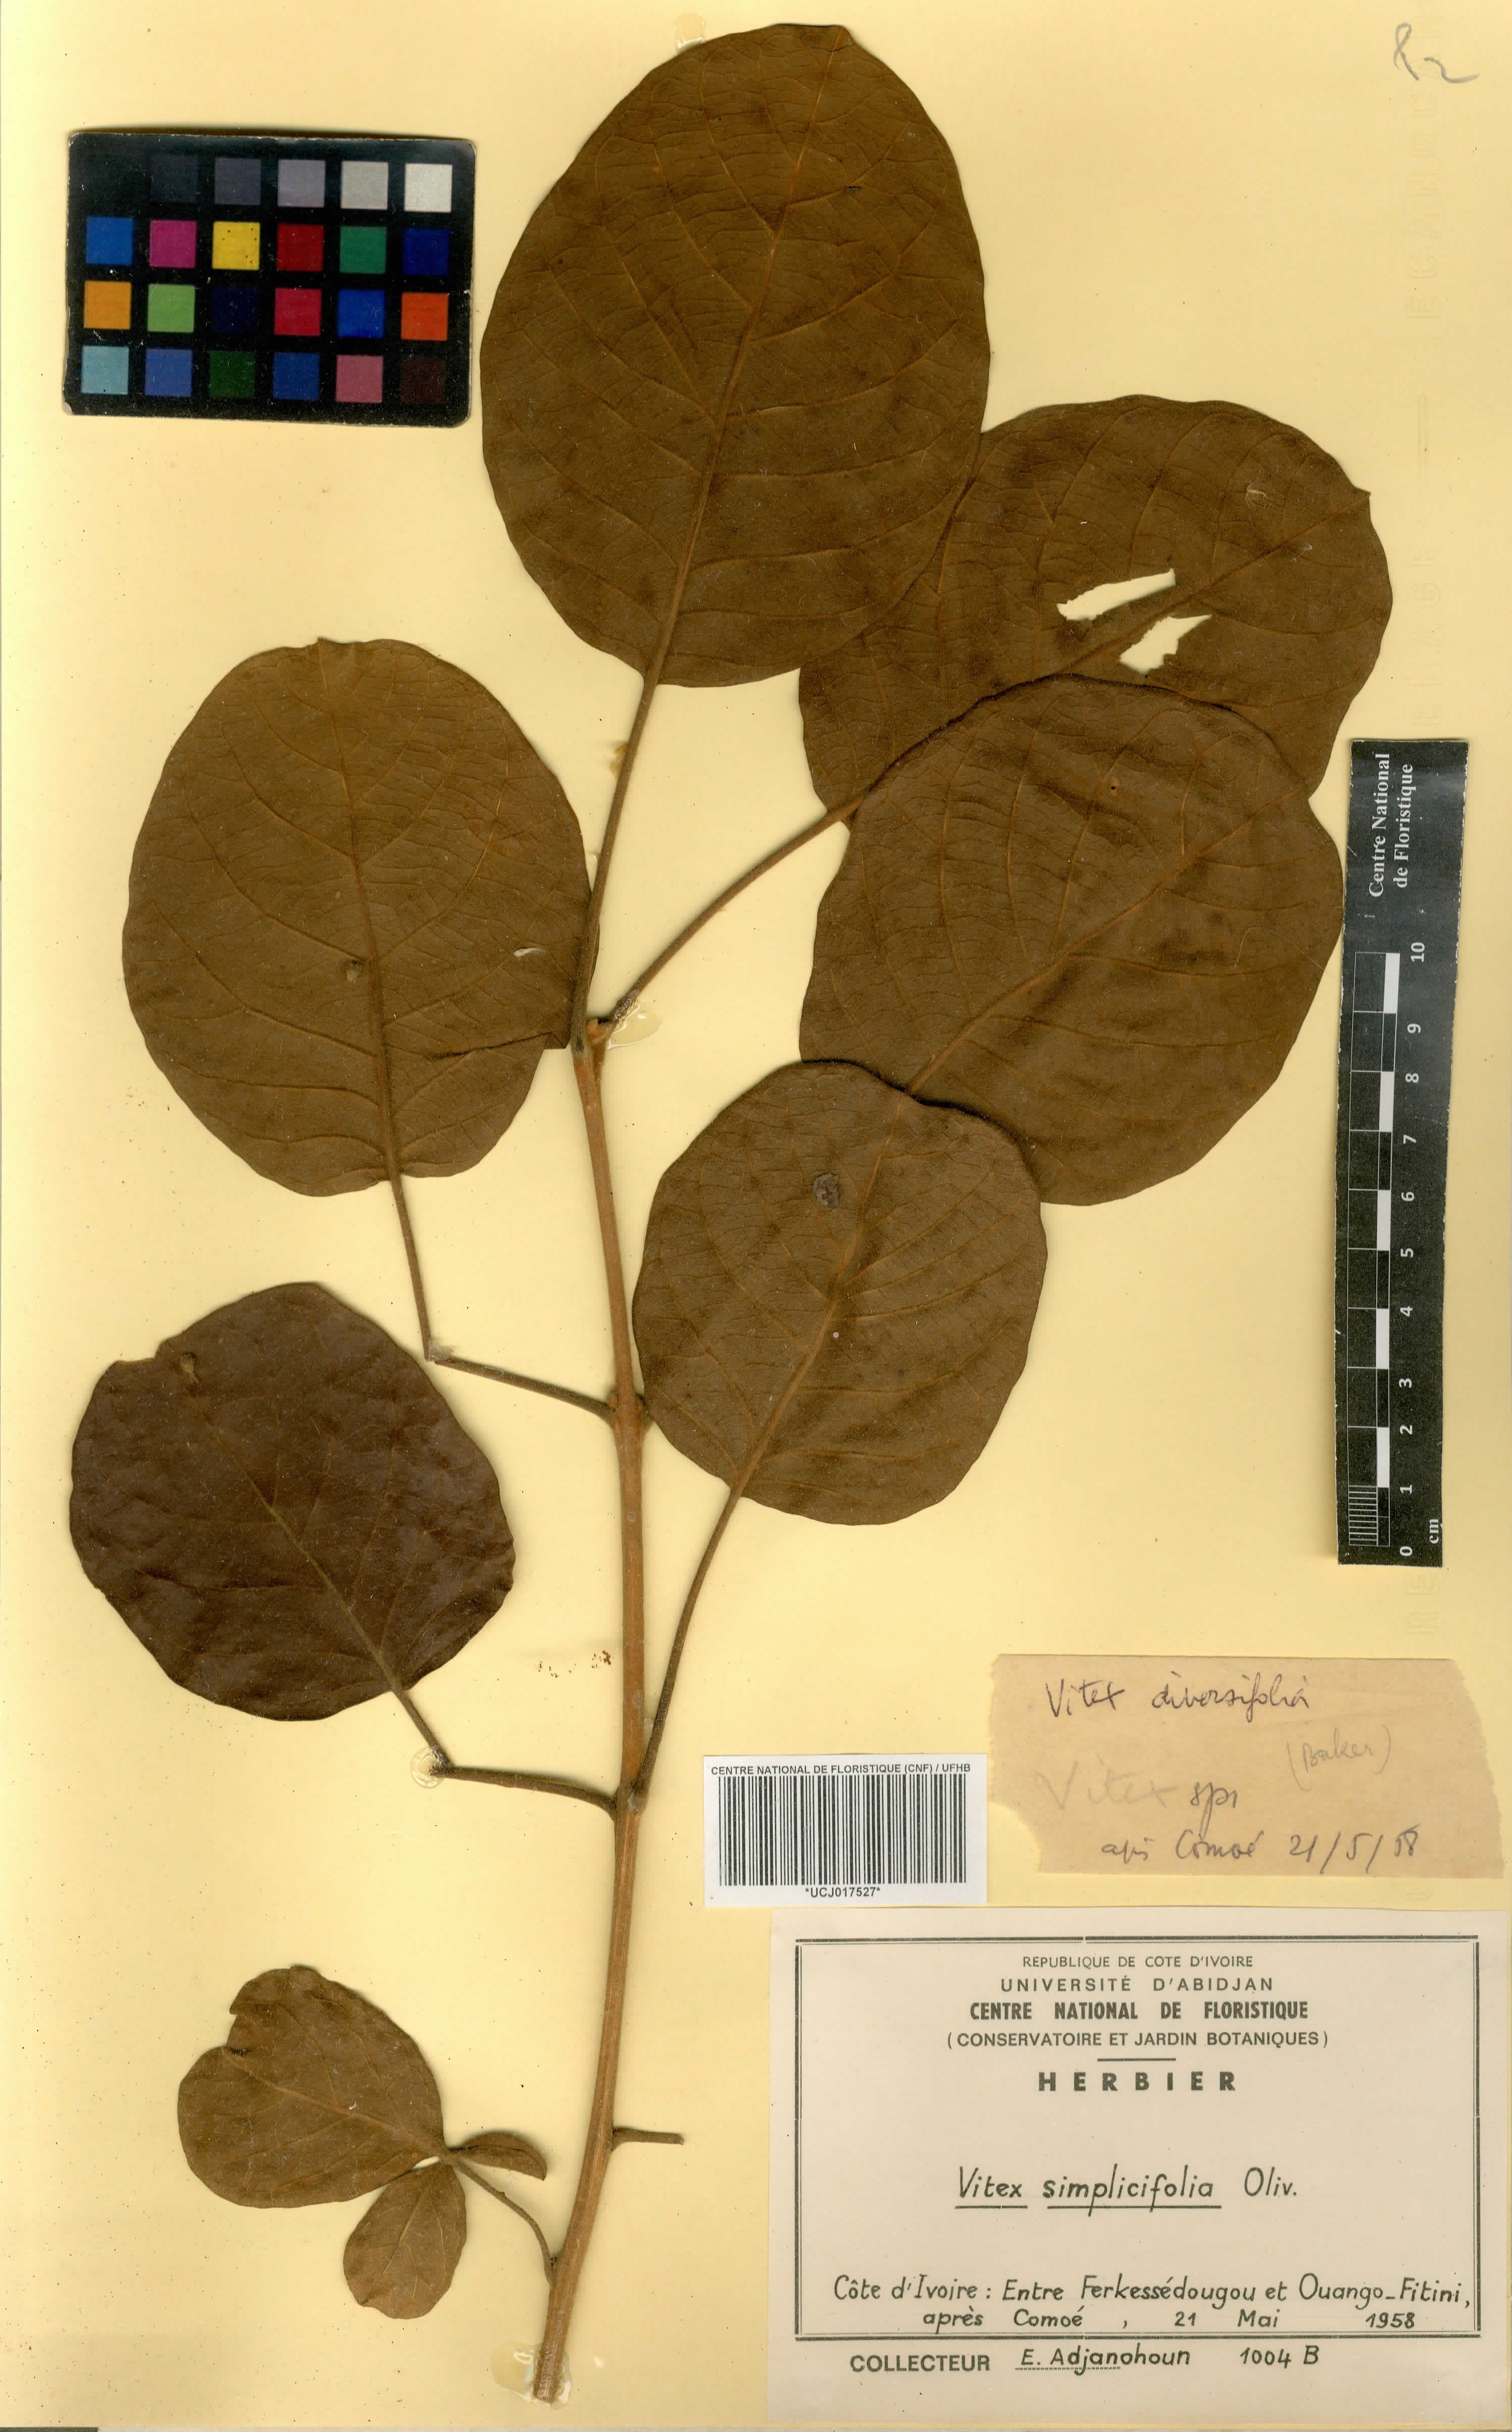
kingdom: Plantae
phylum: Tracheophyta
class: Magnoliopsida
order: Lamiales
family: Lamiaceae
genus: Vitex
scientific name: Vitex madiensis
